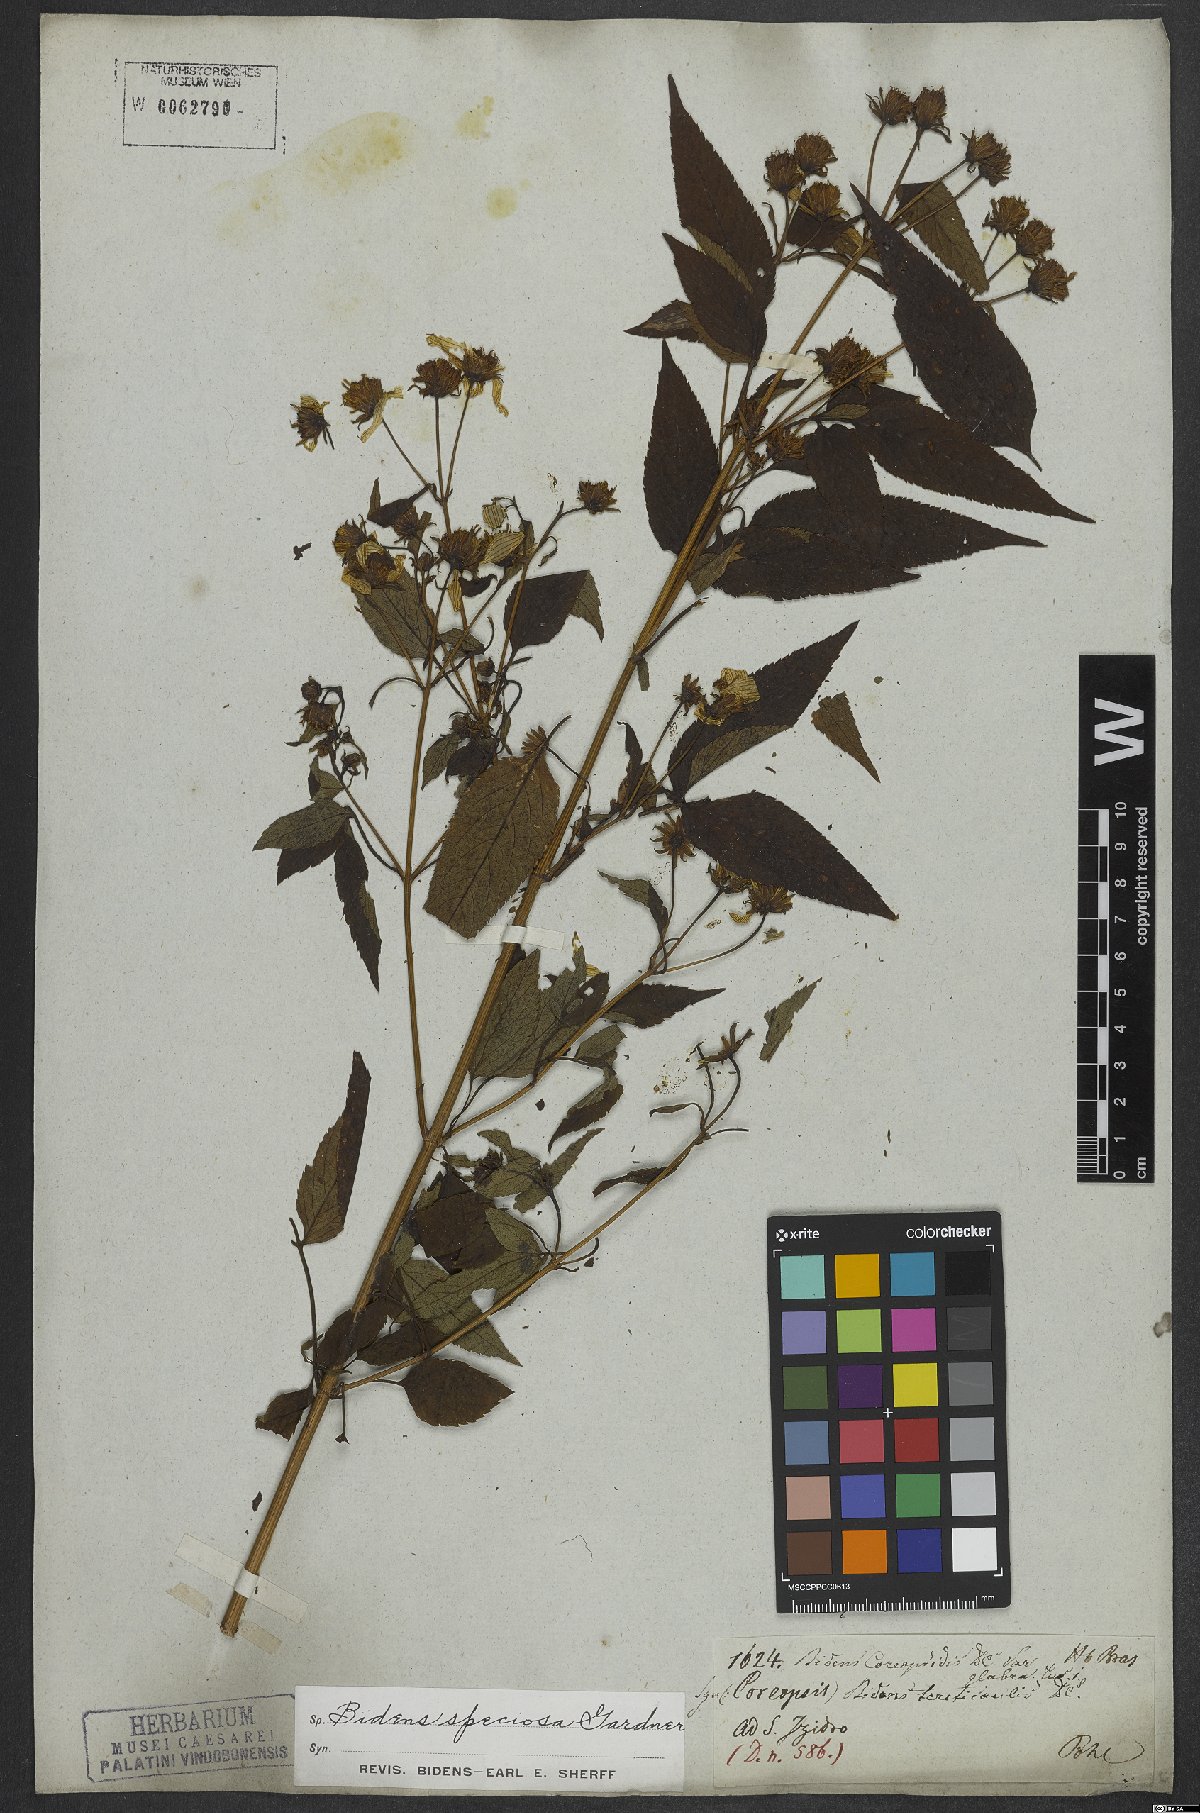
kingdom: Plantae
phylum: Tracheophyta
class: Magnoliopsida
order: Asterales
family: Asteraceae
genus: Bidens
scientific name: Bidens segetum
